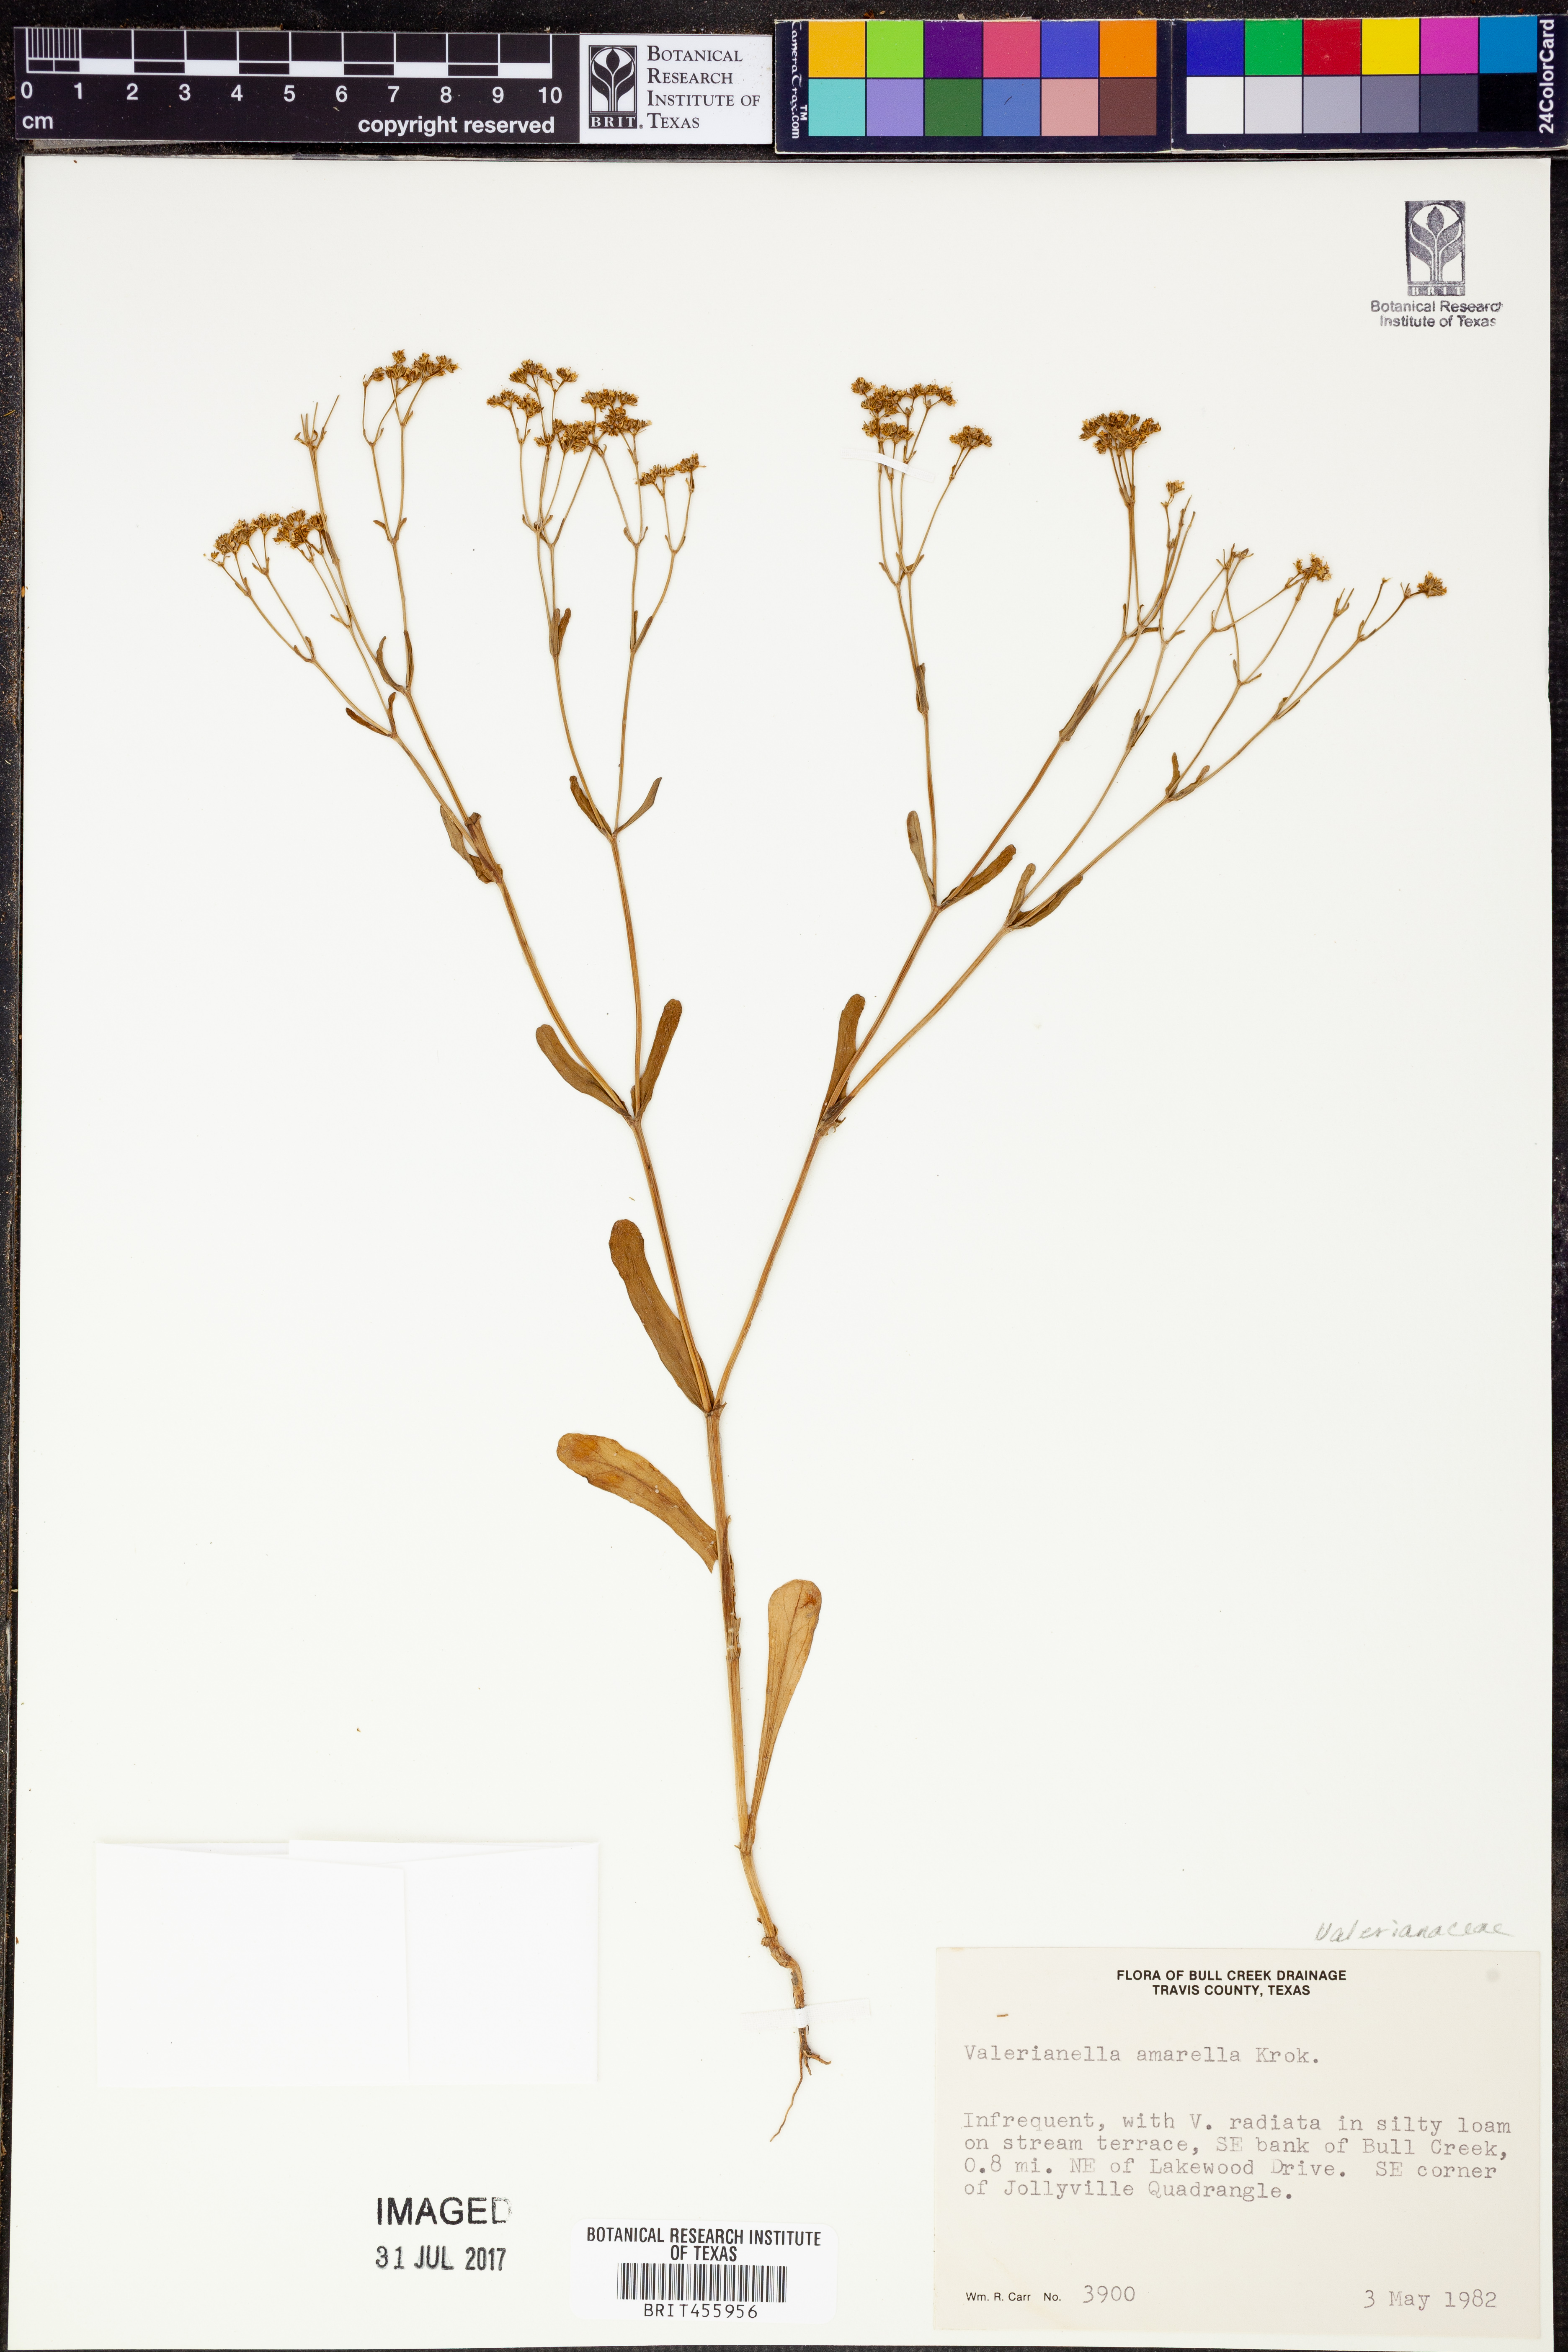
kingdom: Plantae
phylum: Tracheophyta
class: Magnoliopsida
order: Dipsacales
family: Caprifoliaceae
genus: Valerianella
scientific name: Valerianella amarella
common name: Hariy cornsalad
